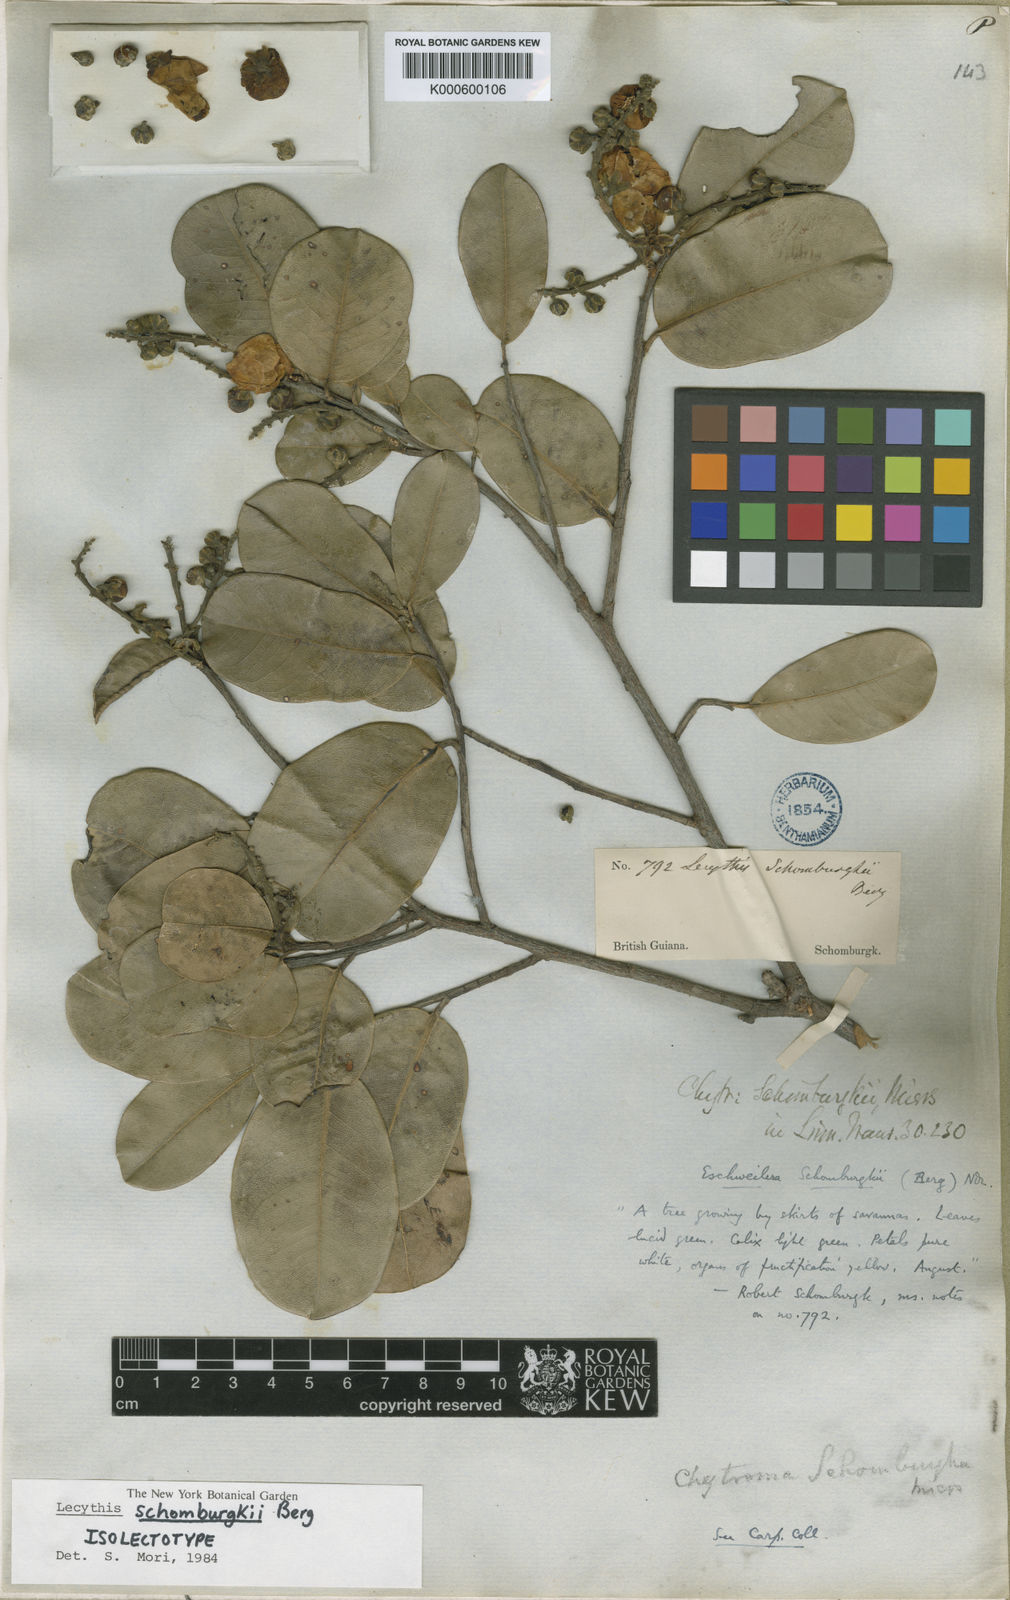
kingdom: Plantae
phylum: Tracheophyta
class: Magnoliopsida
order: Ericales
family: Lecythidaceae
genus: Lecythis
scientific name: Lecythis schomburgkii
